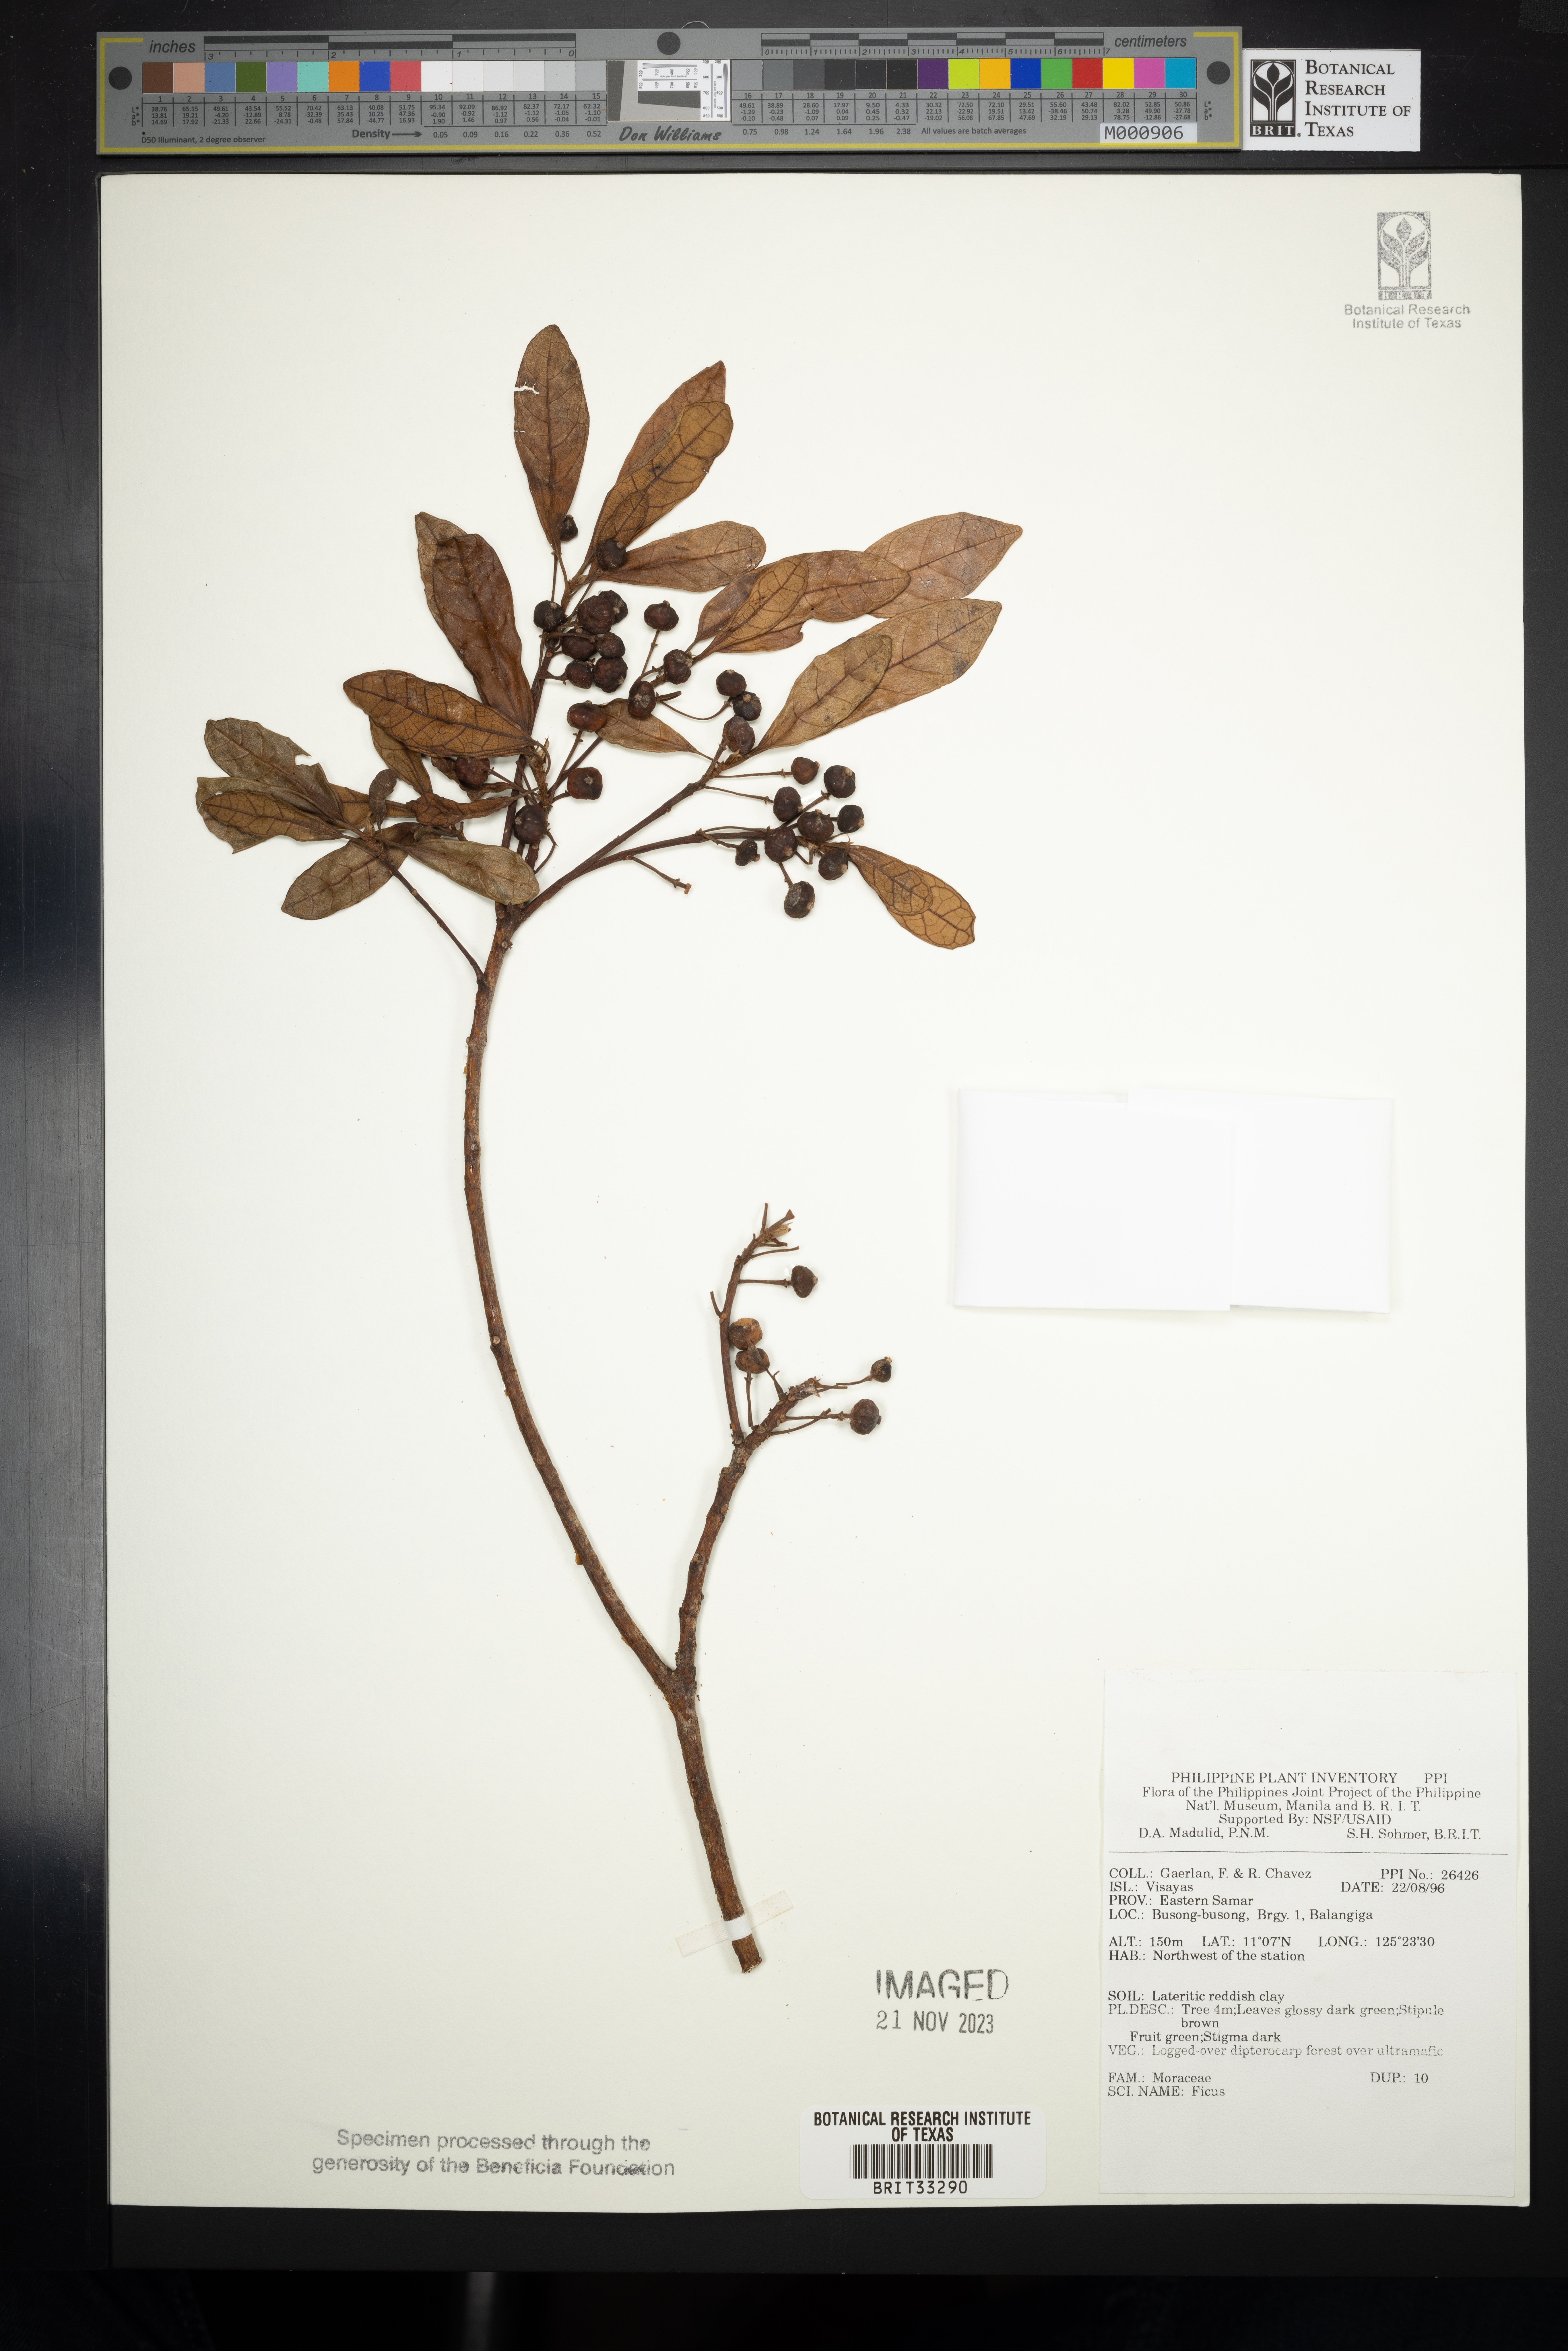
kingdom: Plantae
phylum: Tracheophyta
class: Magnoliopsida
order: Rosales
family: Moraceae
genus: Ficus
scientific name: Ficus
